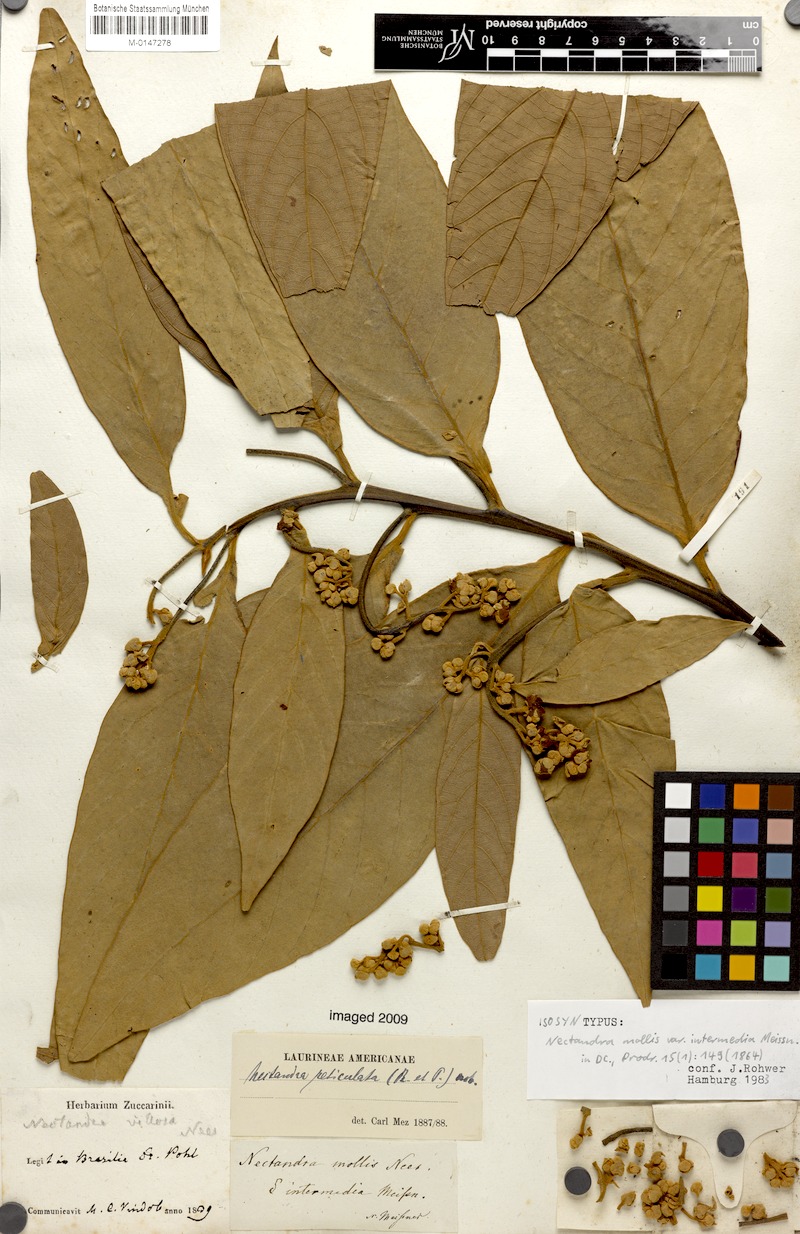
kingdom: Plantae
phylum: Tracheophyta
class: Magnoliopsida
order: Laurales
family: Lauraceae
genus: Nectandra
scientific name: Nectandra villosa
